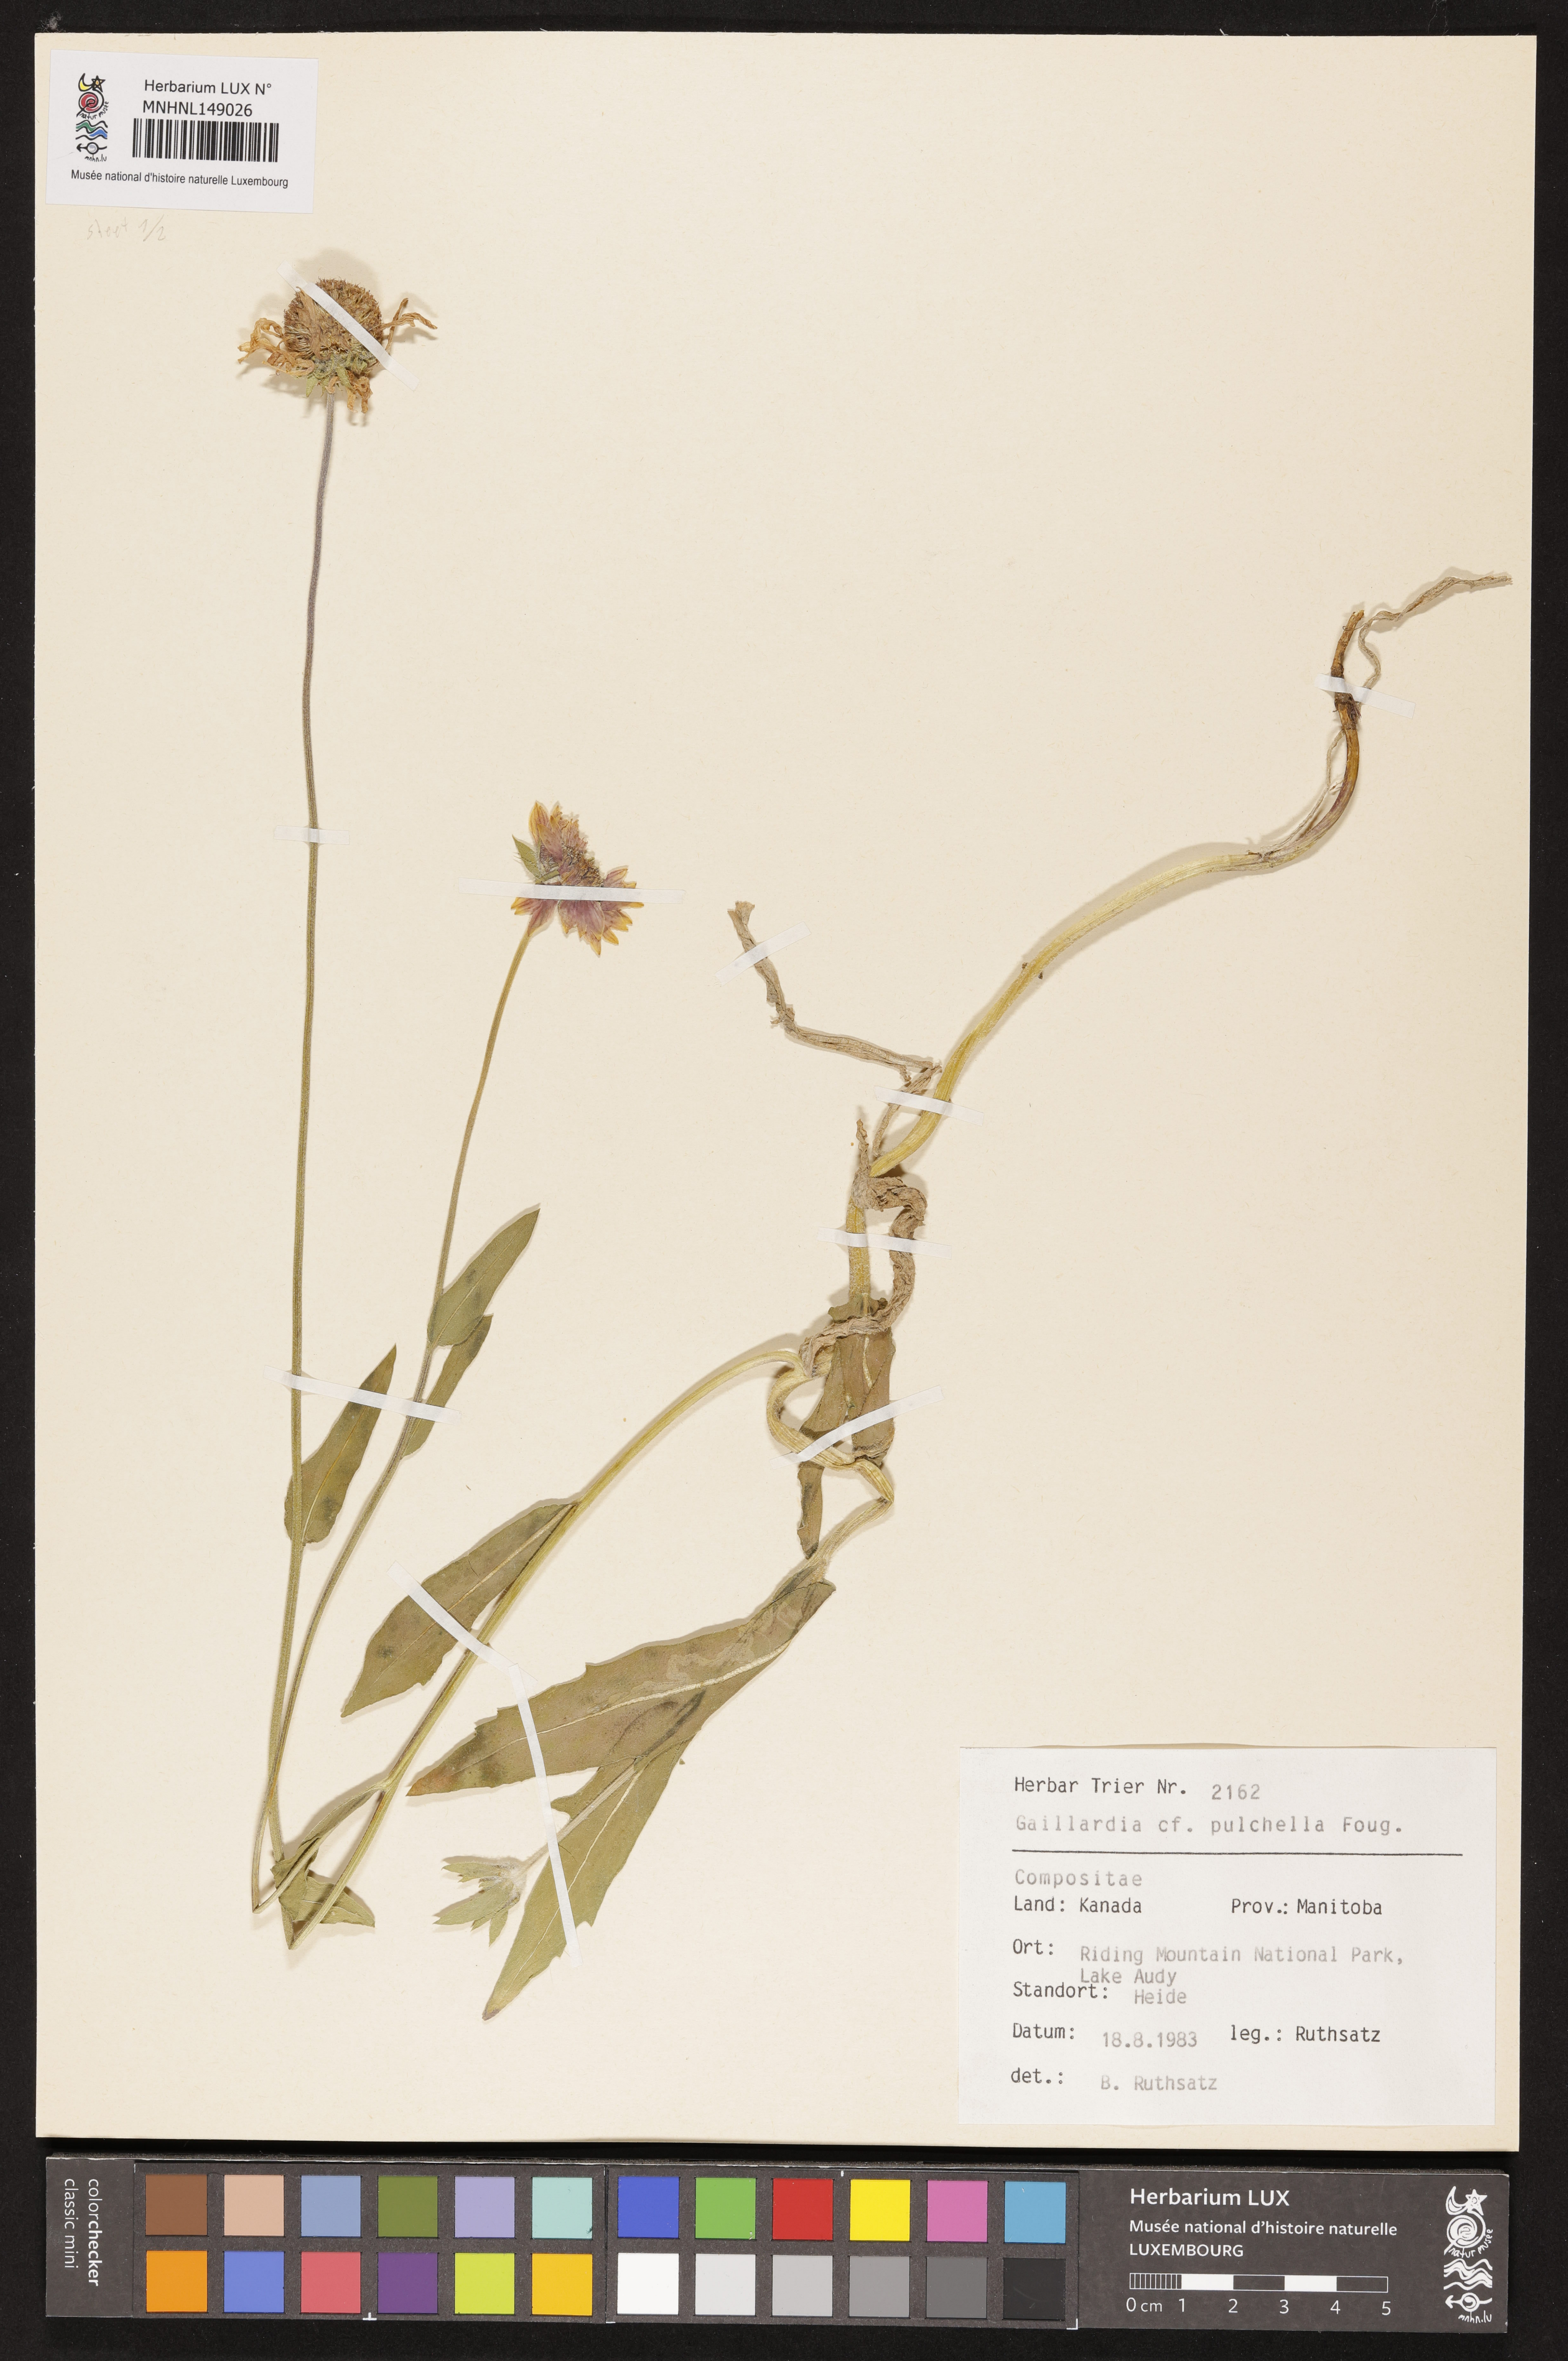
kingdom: Plantae
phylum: Tracheophyta
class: Magnoliopsida
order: Asterales
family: Asteraceae
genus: Gaillardia
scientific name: Gaillardia pulchella
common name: Firewheel
